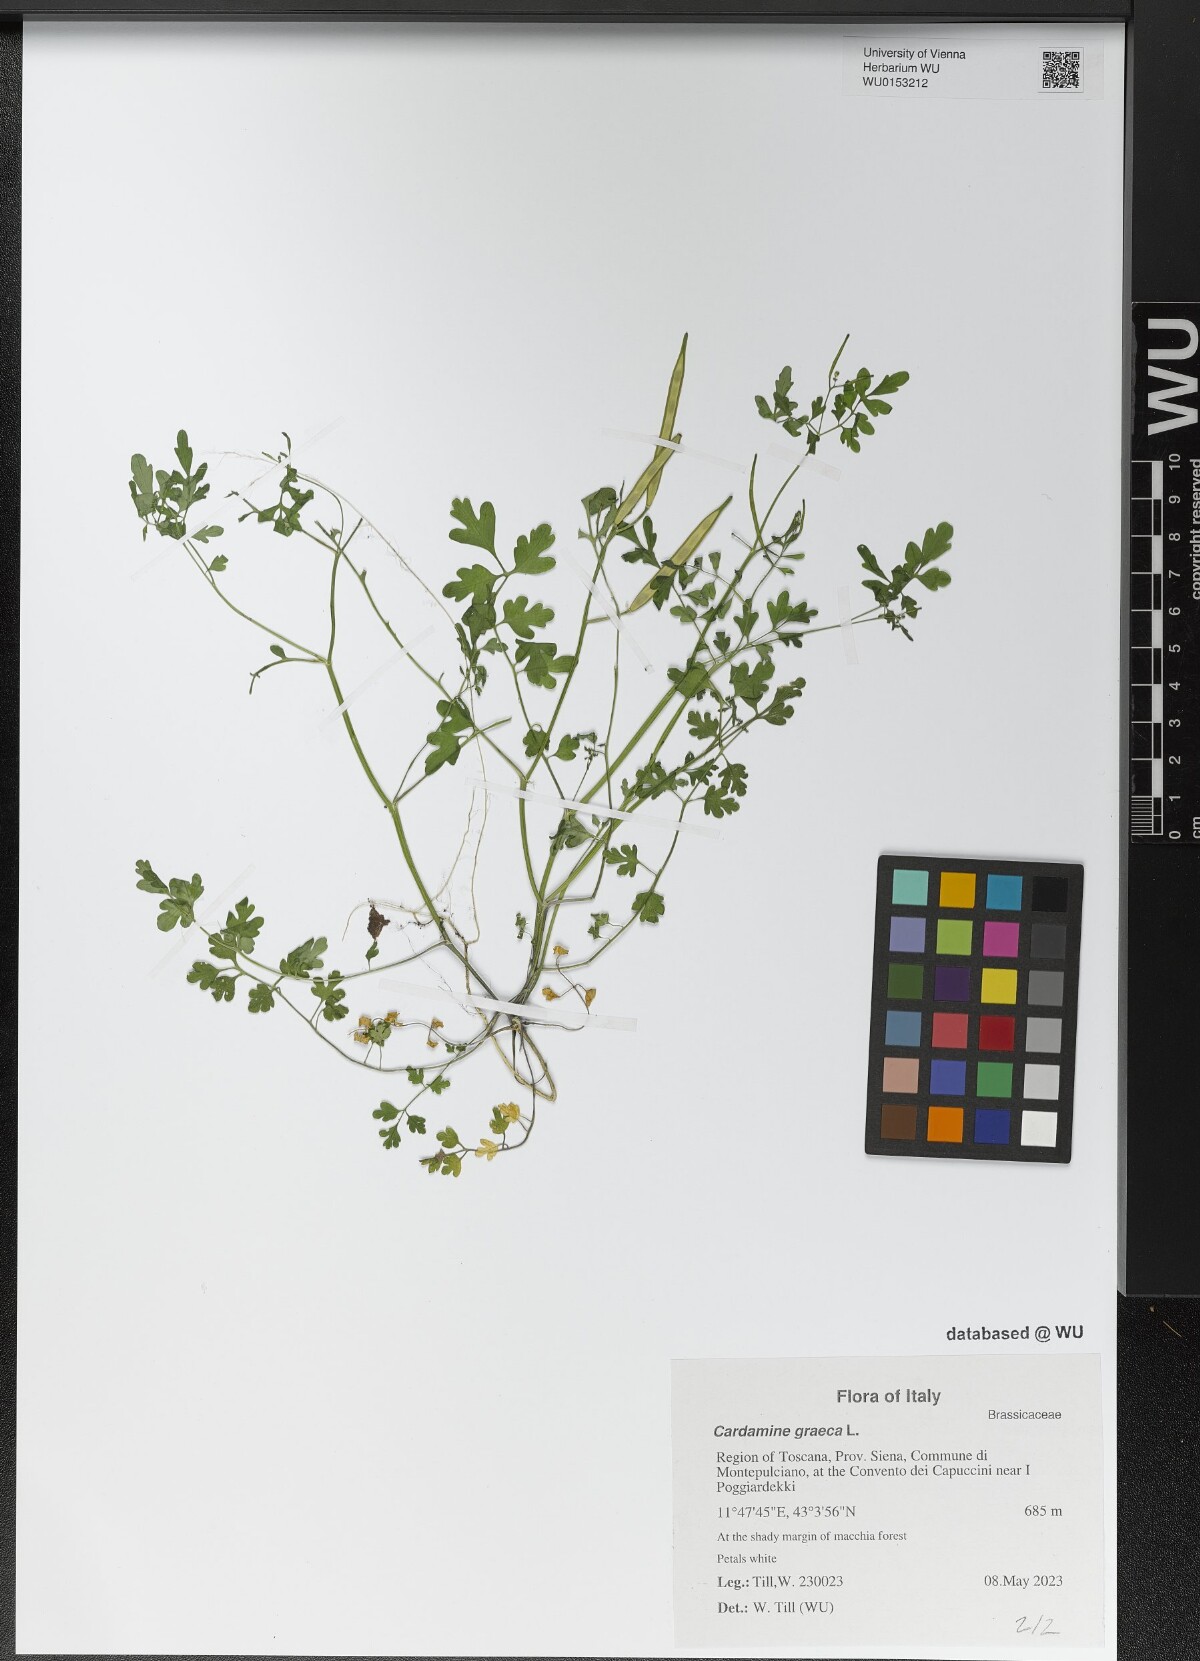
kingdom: Plantae
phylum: Tracheophyta
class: Magnoliopsida
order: Brassicales
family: Brassicaceae
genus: Cardamine
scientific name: Cardamine graeca
